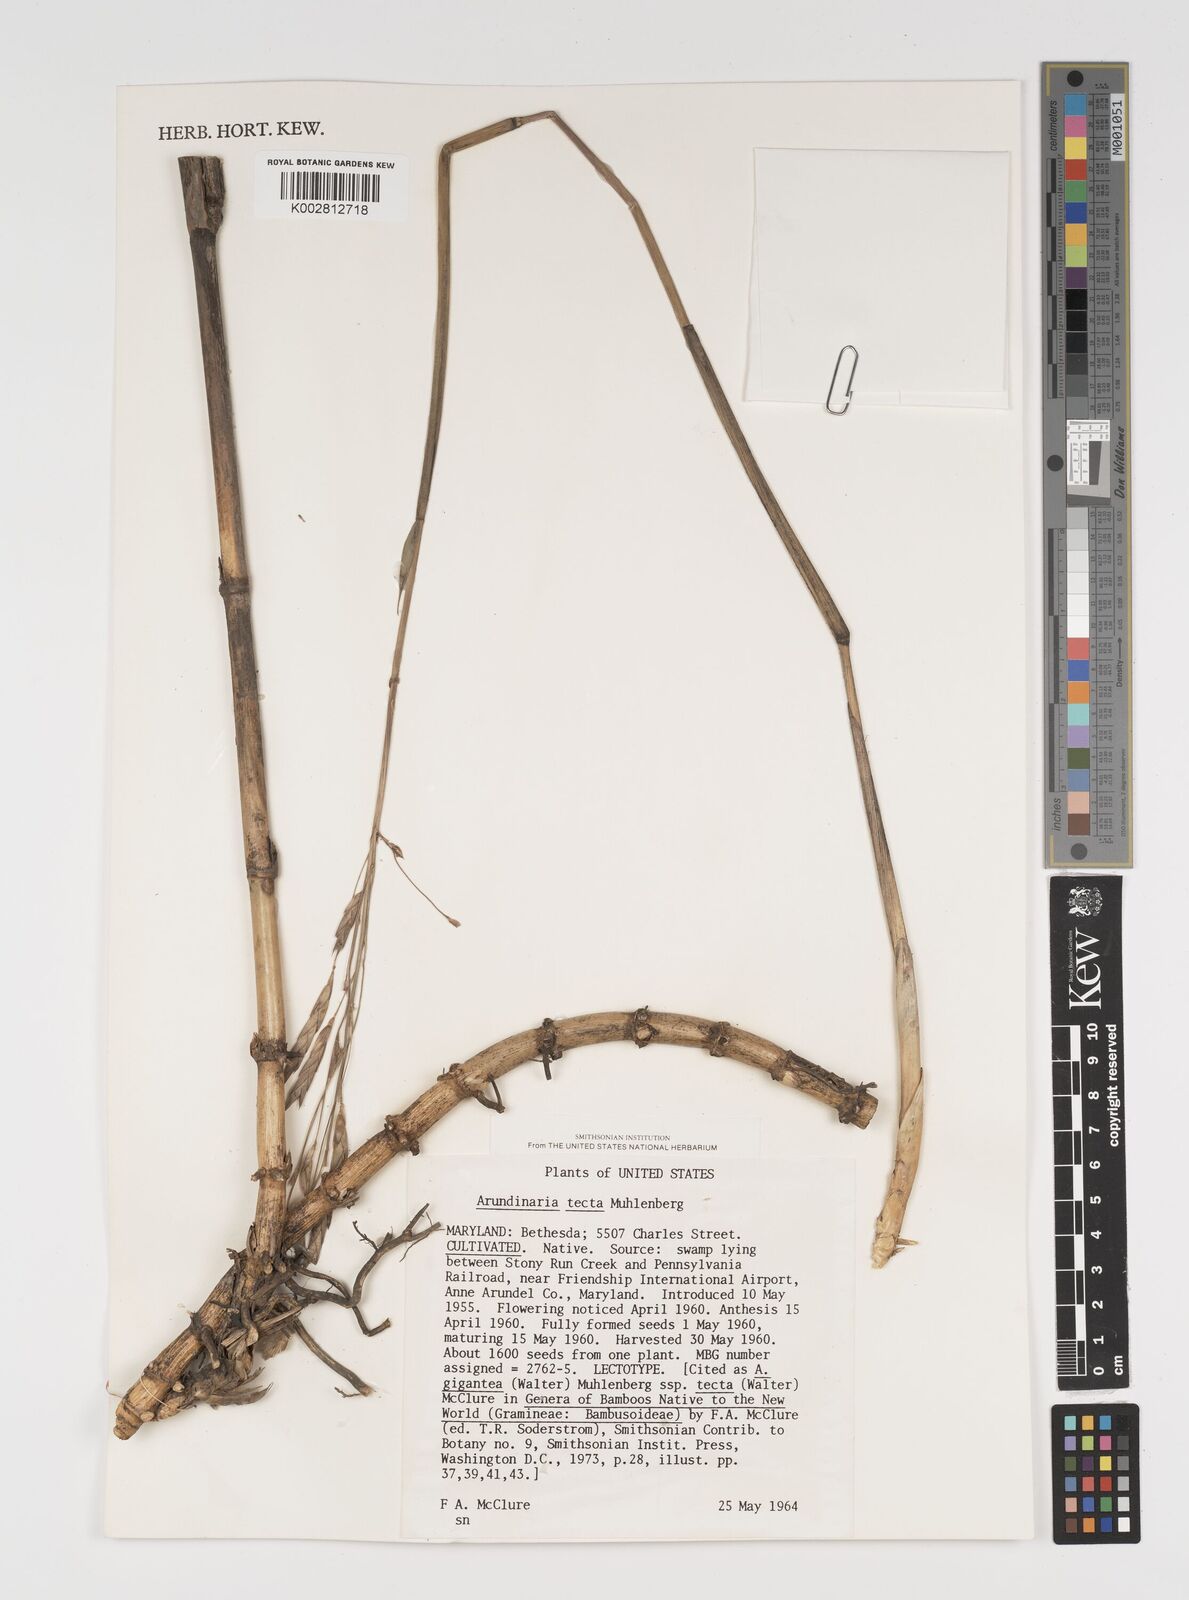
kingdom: Plantae
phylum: Tracheophyta
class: Liliopsida
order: Poales
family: Poaceae
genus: Arundinaria
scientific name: Arundinaria tecta
